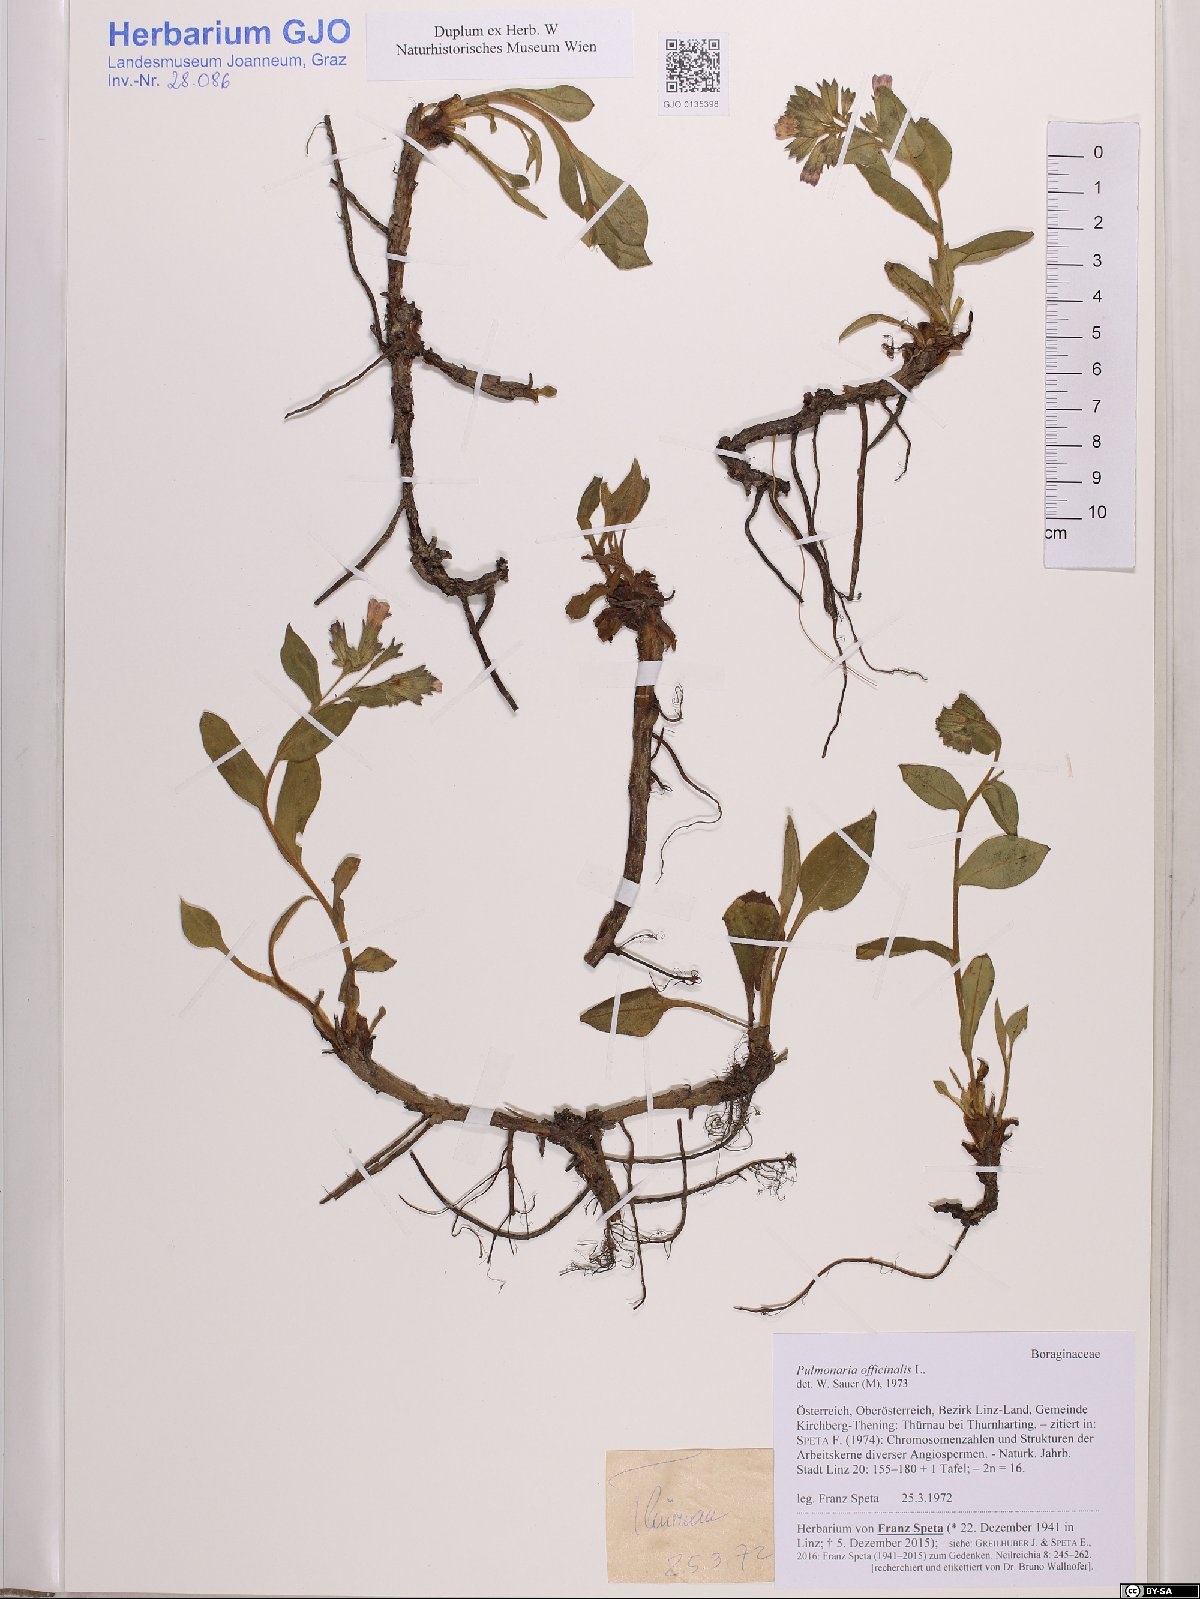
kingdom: Plantae
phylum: Tracheophyta
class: Magnoliopsida
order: Boraginales
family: Boraginaceae
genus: Pulmonaria
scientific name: Pulmonaria officinalis
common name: Lungwort
